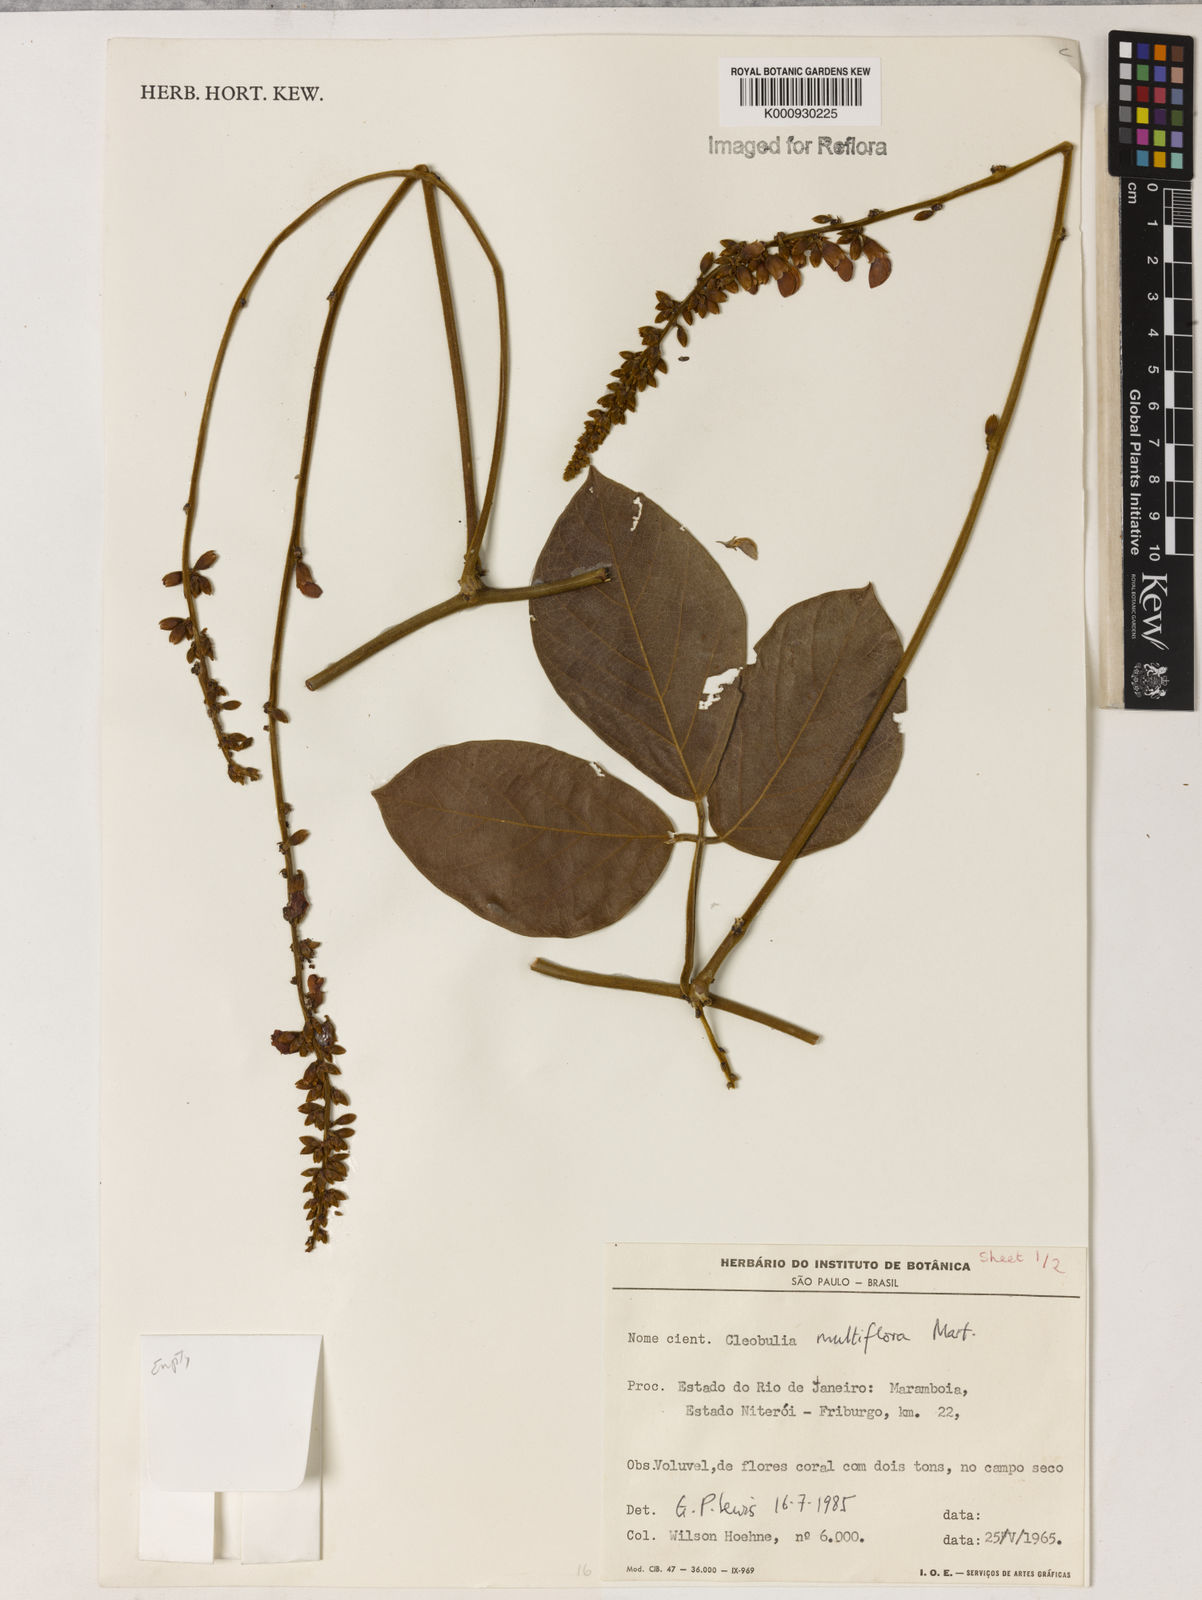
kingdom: Plantae
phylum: Tracheophyta
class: Magnoliopsida
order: Fabales
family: Fabaceae
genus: Cleobulia
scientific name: Cleobulia coccinea
